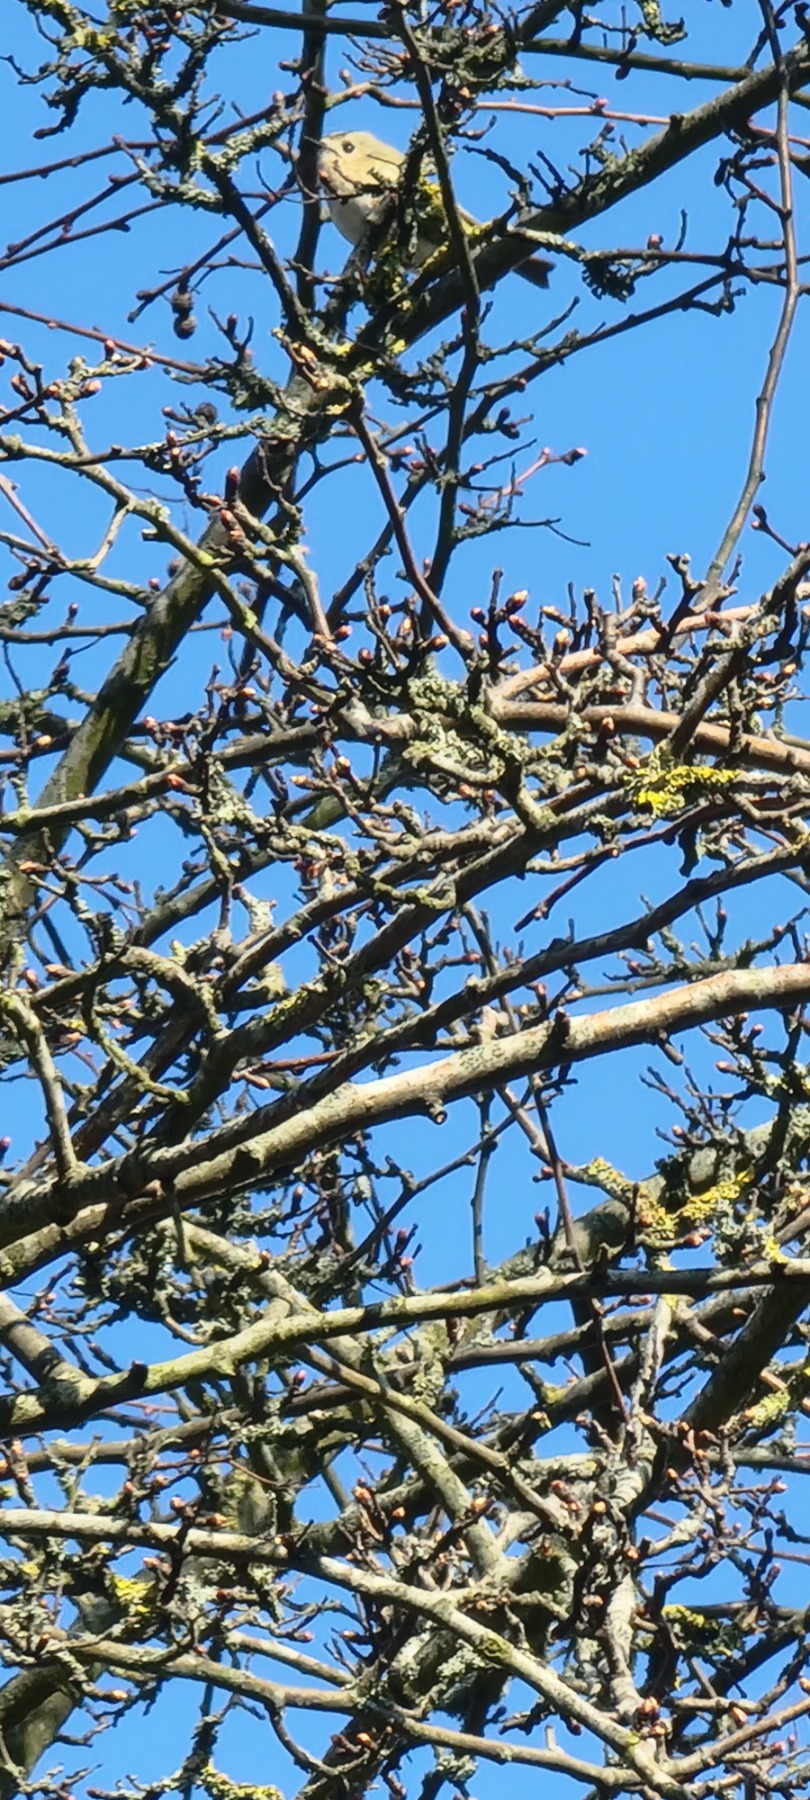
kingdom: Animalia
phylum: Chordata
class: Aves
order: Passeriformes
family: Regulidae
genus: Regulus
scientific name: Regulus regulus
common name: Fuglekonge
